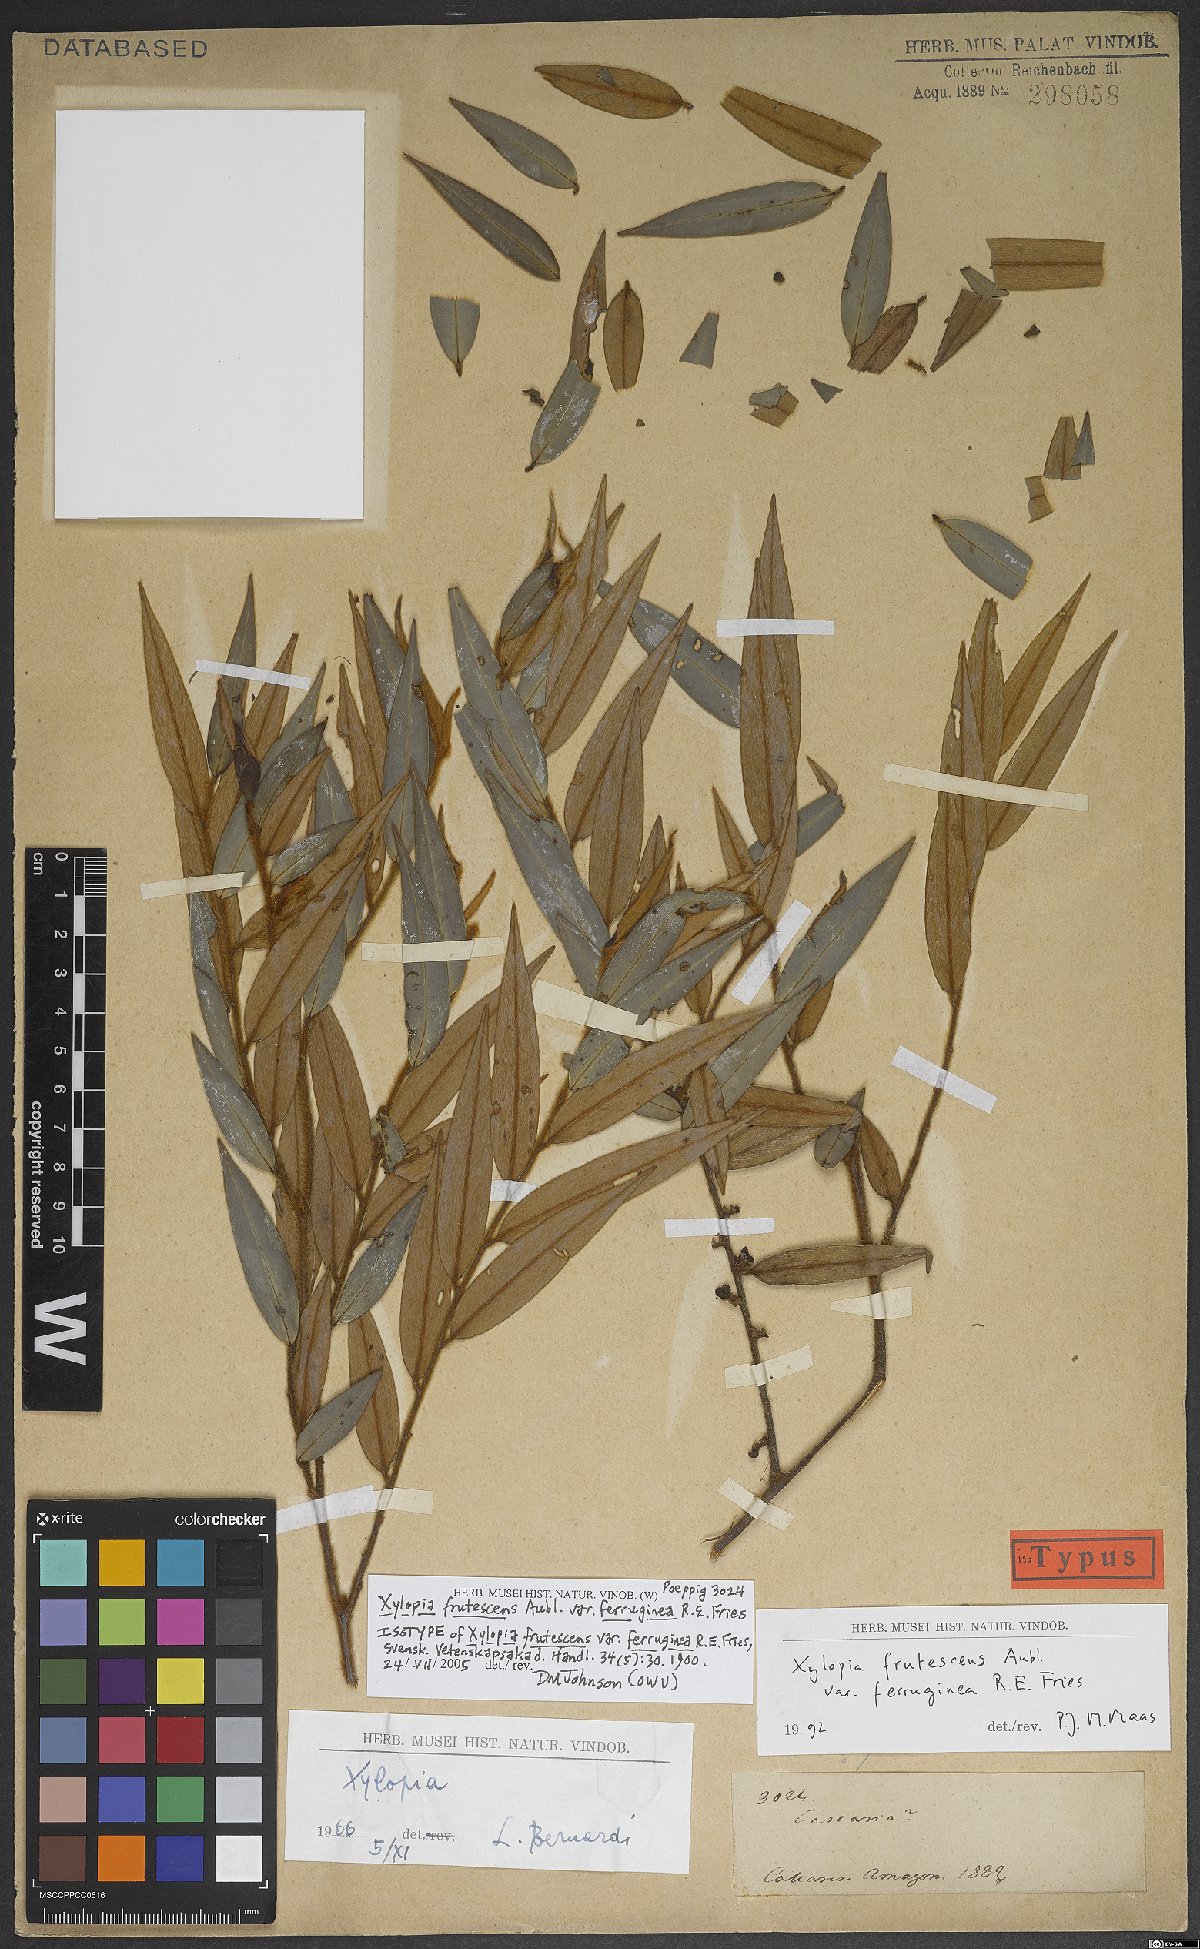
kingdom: Plantae
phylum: Tracheophyta
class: Magnoliopsida
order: Magnoliales
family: Annonaceae
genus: Xylopia
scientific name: Xylopia frutescens
